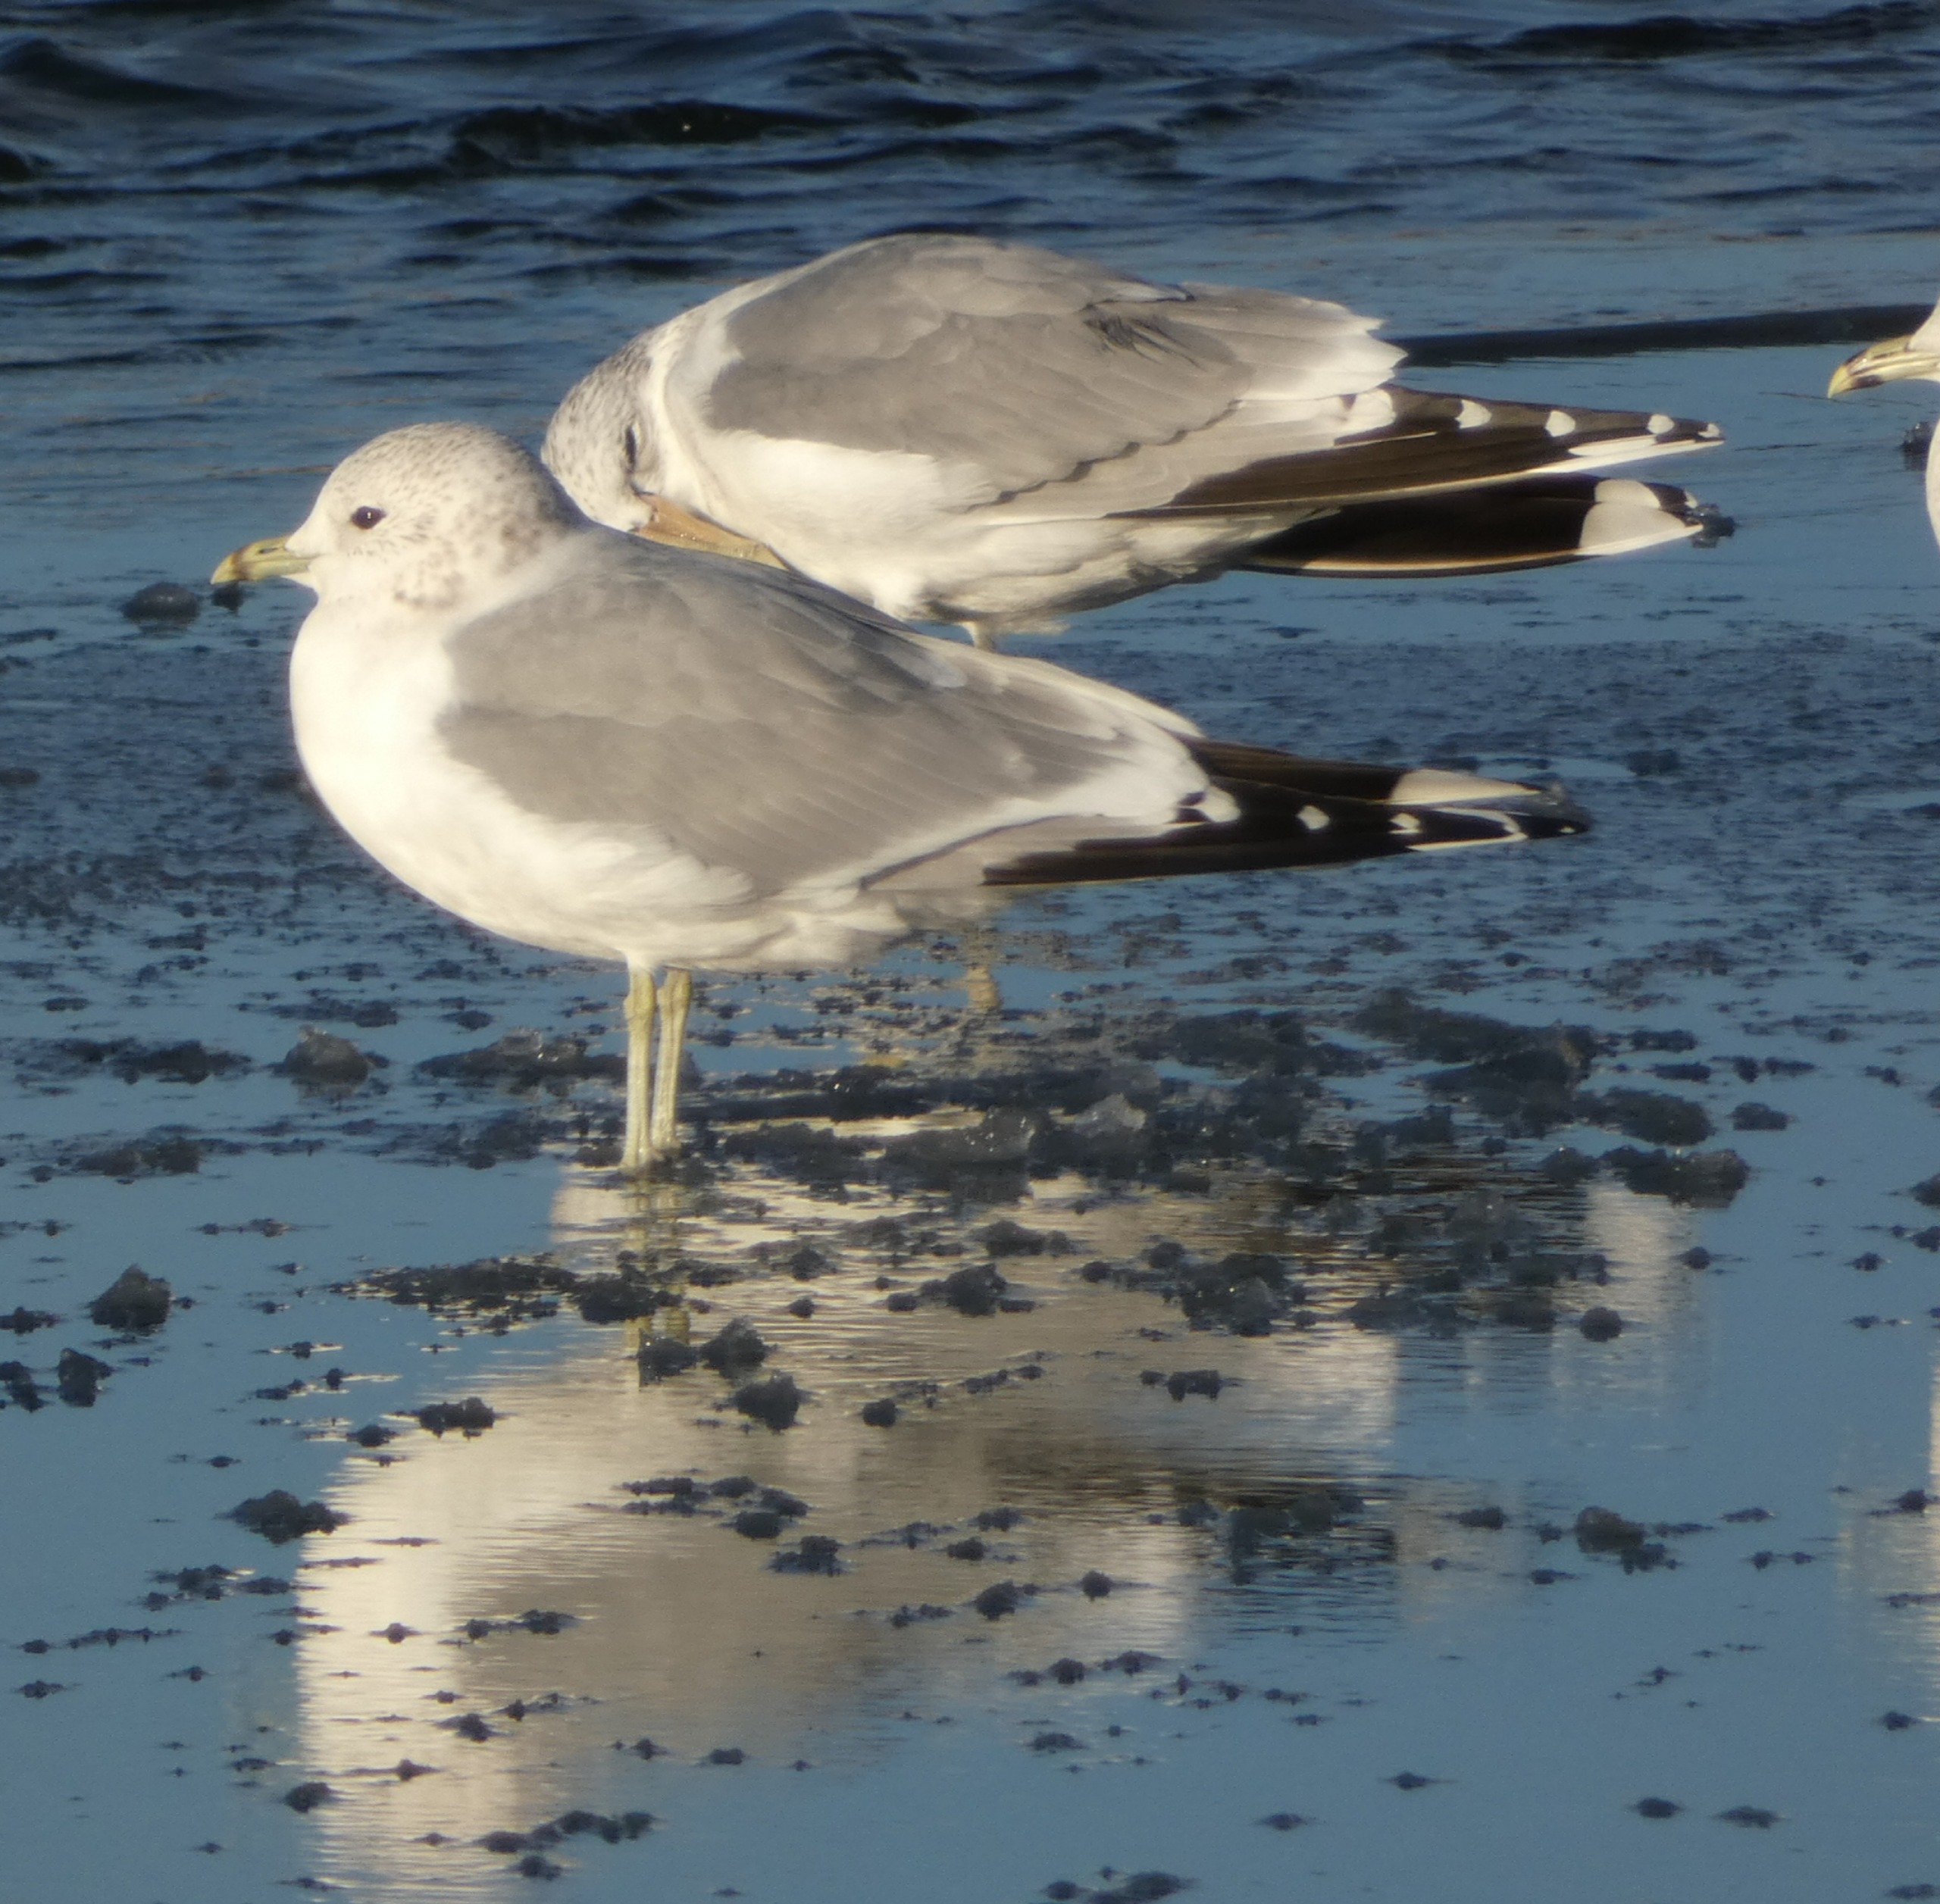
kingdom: Animalia
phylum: Chordata
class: Aves
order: Charadriiformes
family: Laridae
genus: Larus
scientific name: Larus canus
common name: Stormmåge
